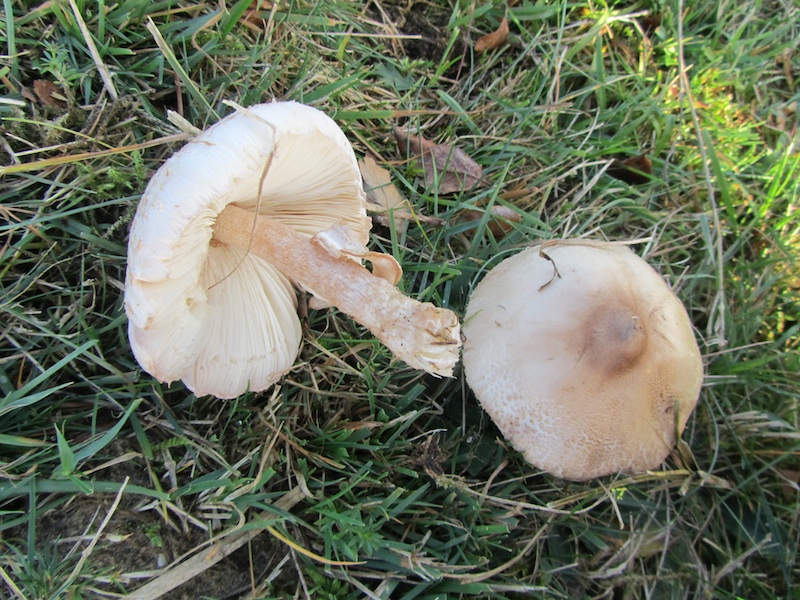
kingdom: Fungi
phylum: Basidiomycota
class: Agaricomycetes
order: Agaricales
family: Agaricaceae
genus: Macrolepiota
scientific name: Macrolepiota excoriata
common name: mark-kæmpeparasolhat
